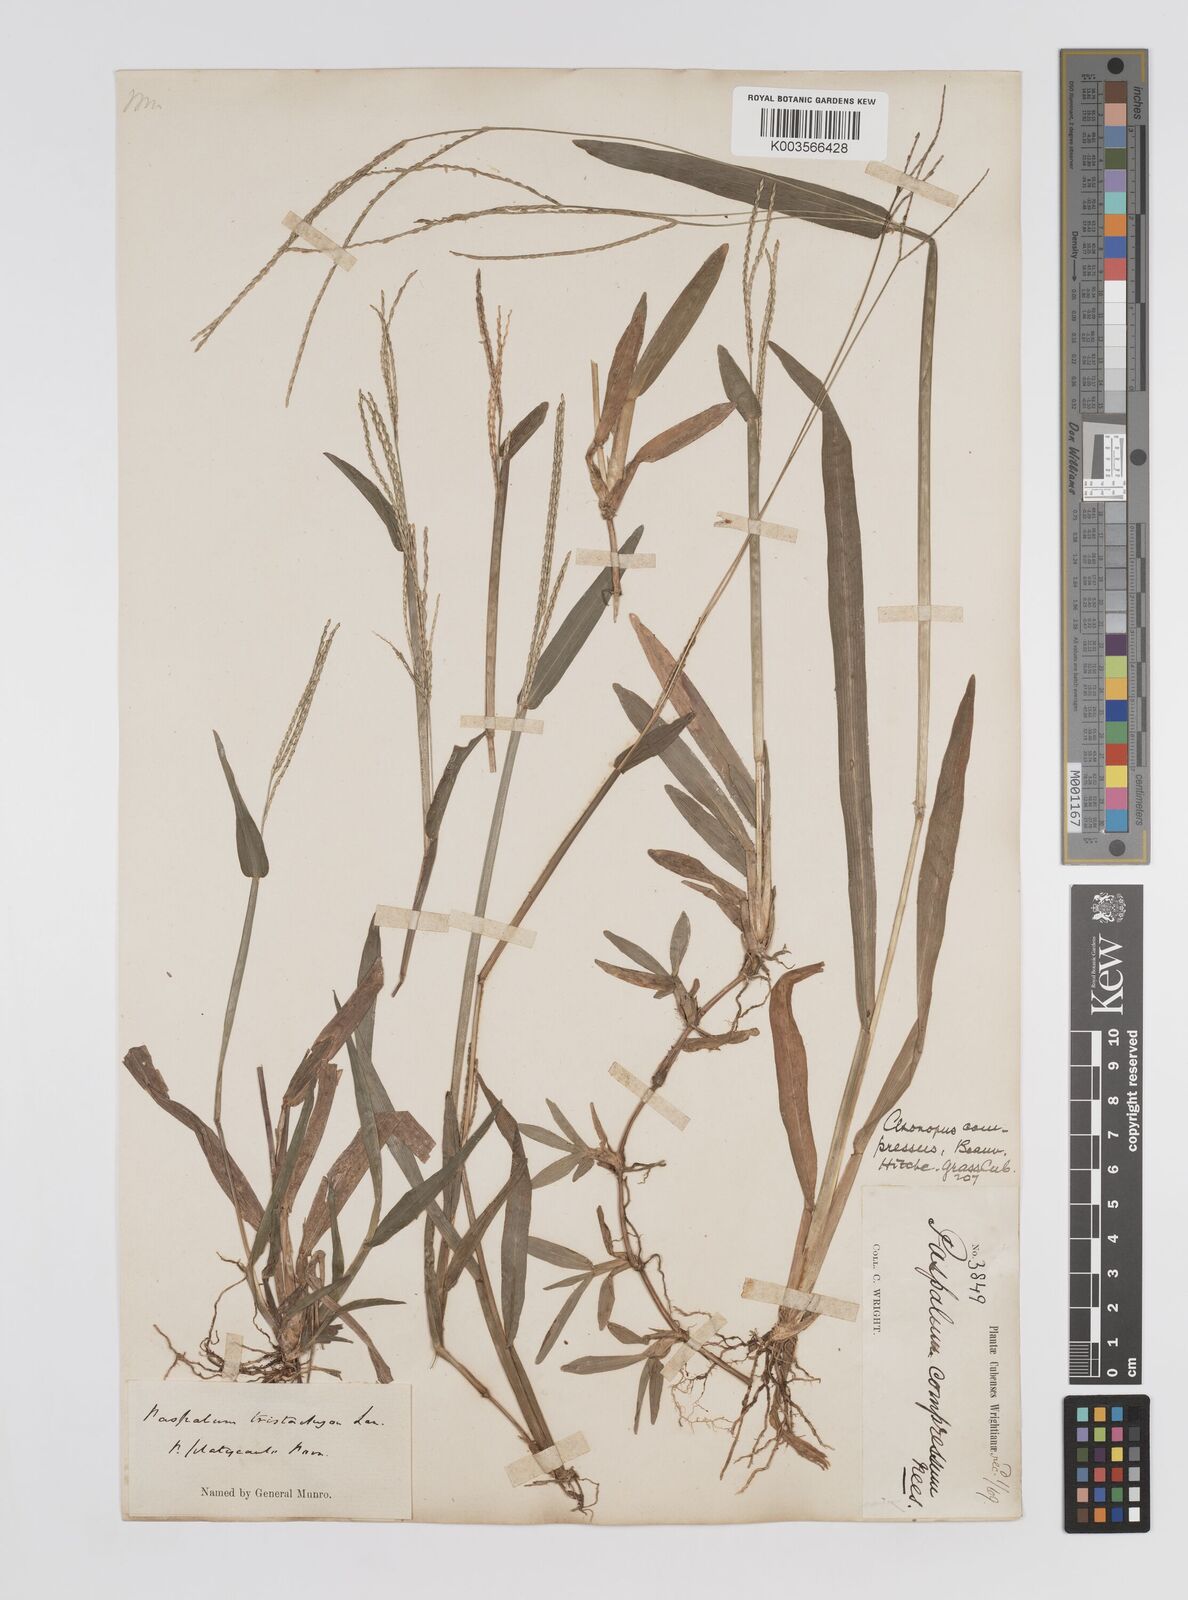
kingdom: Plantae
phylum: Tracheophyta
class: Liliopsida
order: Poales
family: Poaceae
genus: Axonopus
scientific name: Axonopus compressus
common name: American carpet grass
